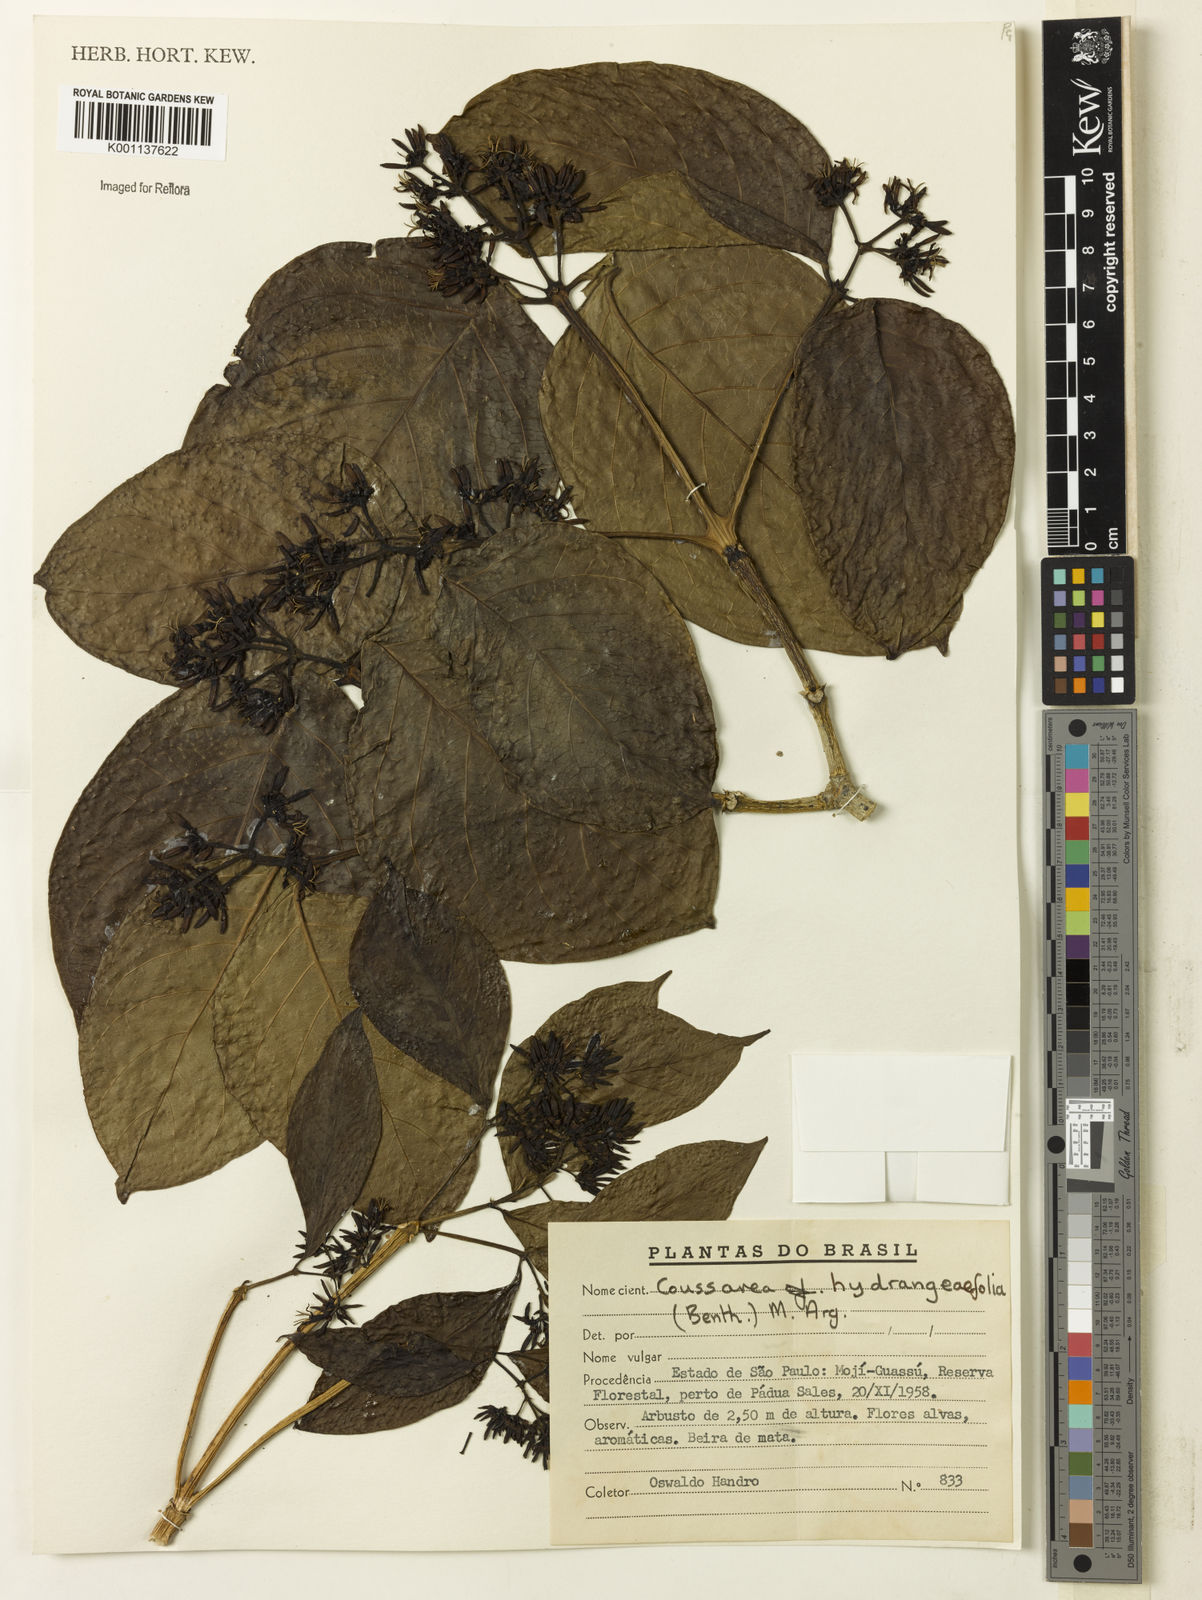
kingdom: Plantae
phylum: Tracheophyta
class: Magnoliopsida
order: Gentianales
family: Rubiaceae
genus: Coussarea
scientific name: Coussarea
